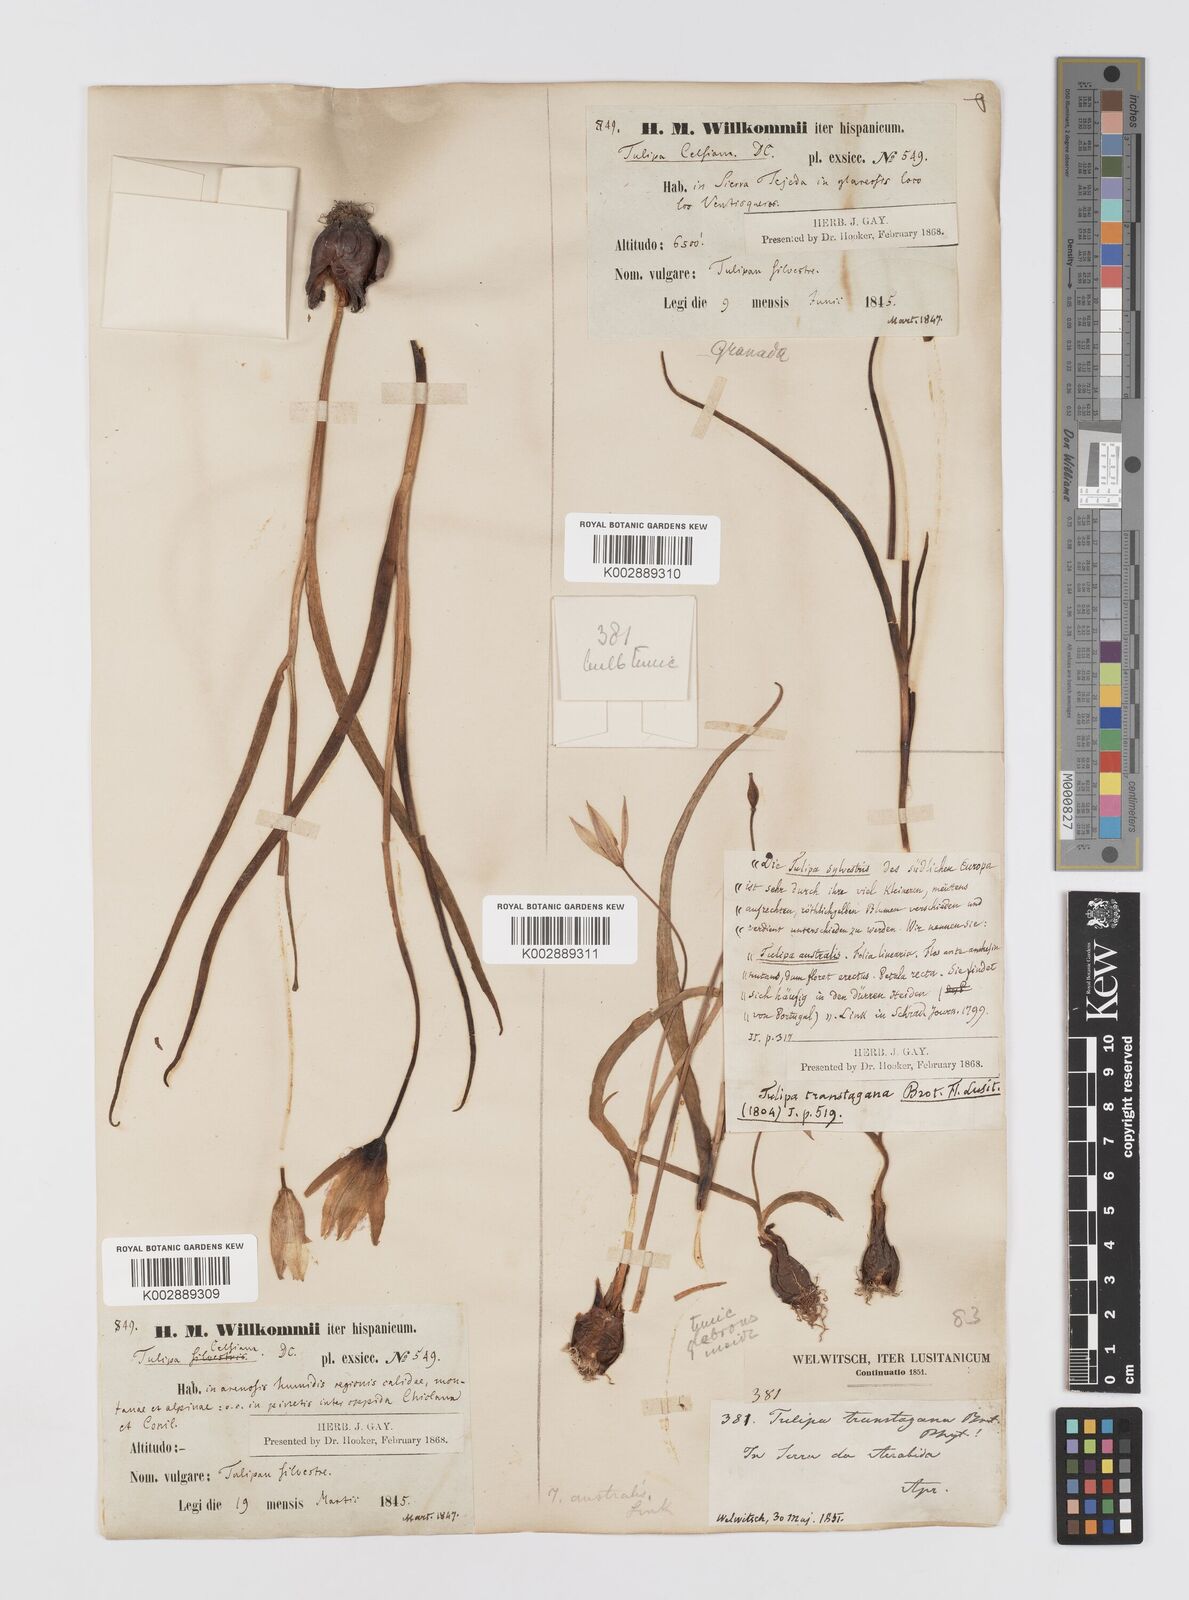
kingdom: Plantae
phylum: Tracheophyta
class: Liliopsida
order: Liliales
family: Liliaceae
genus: Tulipa
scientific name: Tulipa sylvestris
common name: Wild tulip
